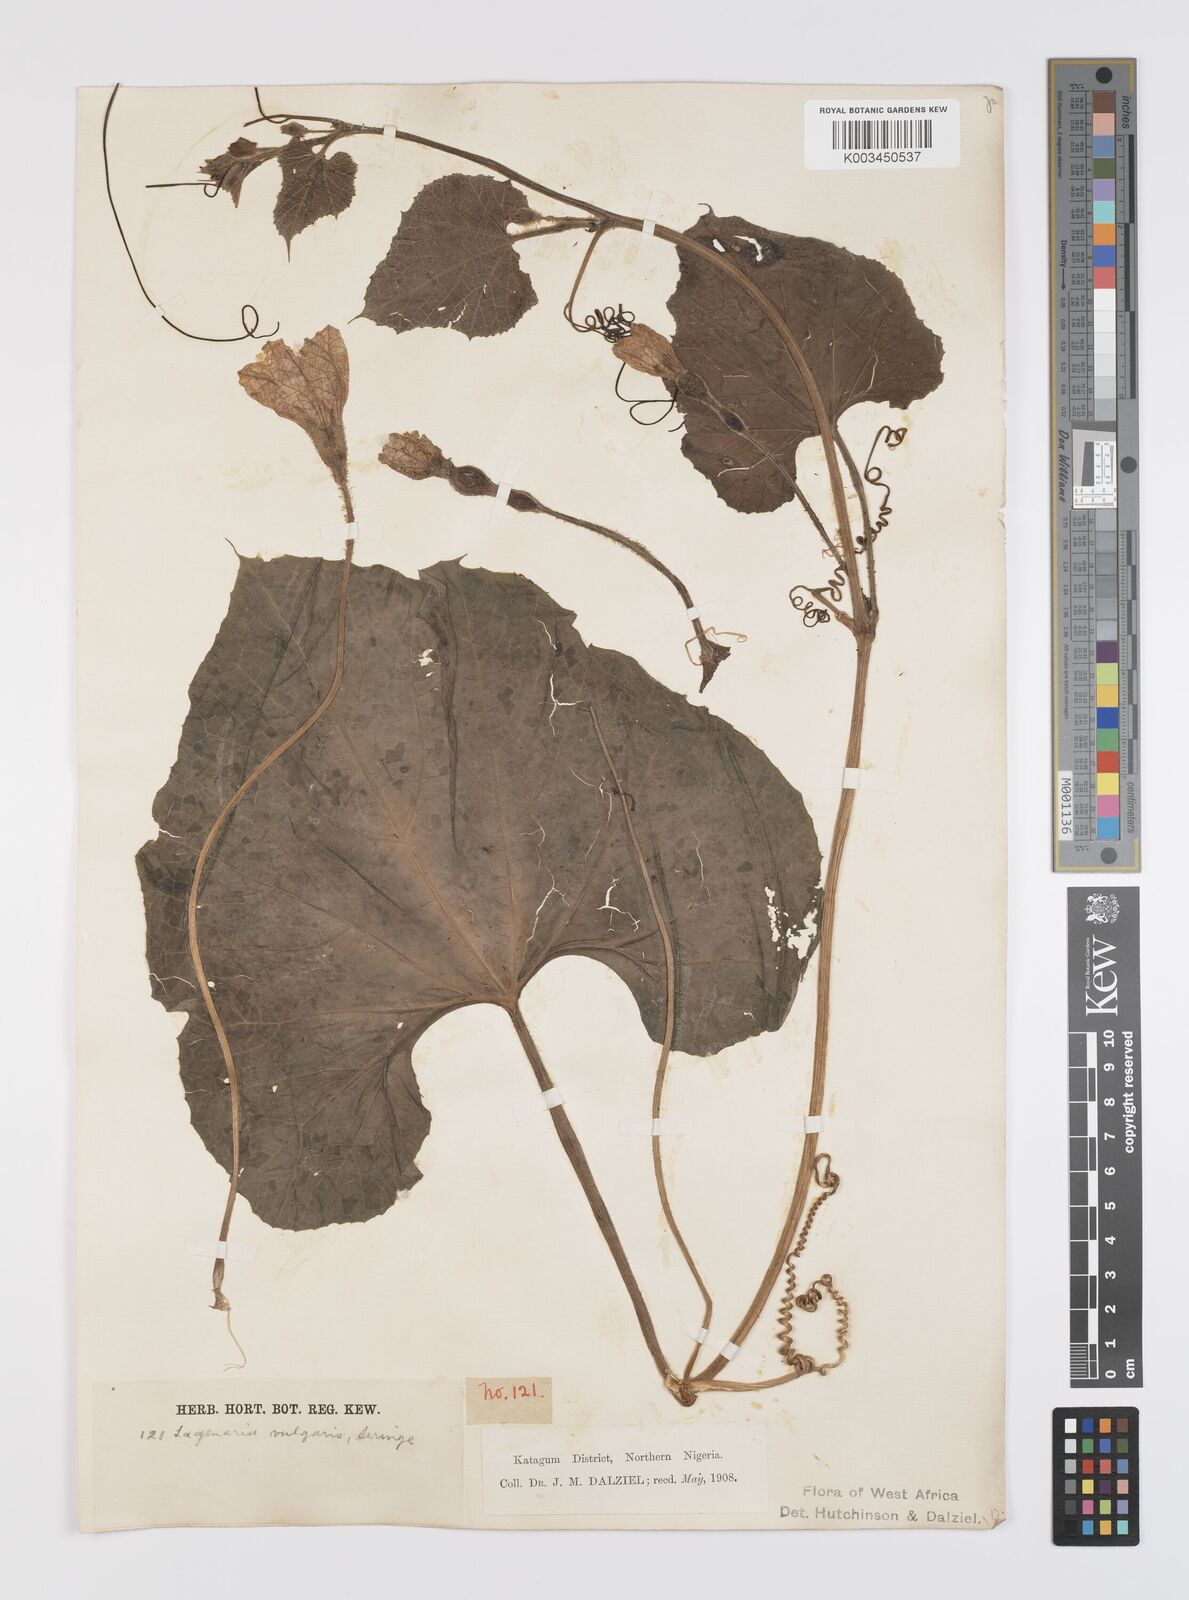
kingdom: Plantae
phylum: Tracheophyta
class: Magnoliopsida
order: Cucurbitales
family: Cucurbitaceae
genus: Lagenaria
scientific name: Lagenaria siceraria
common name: Bottle gourd
